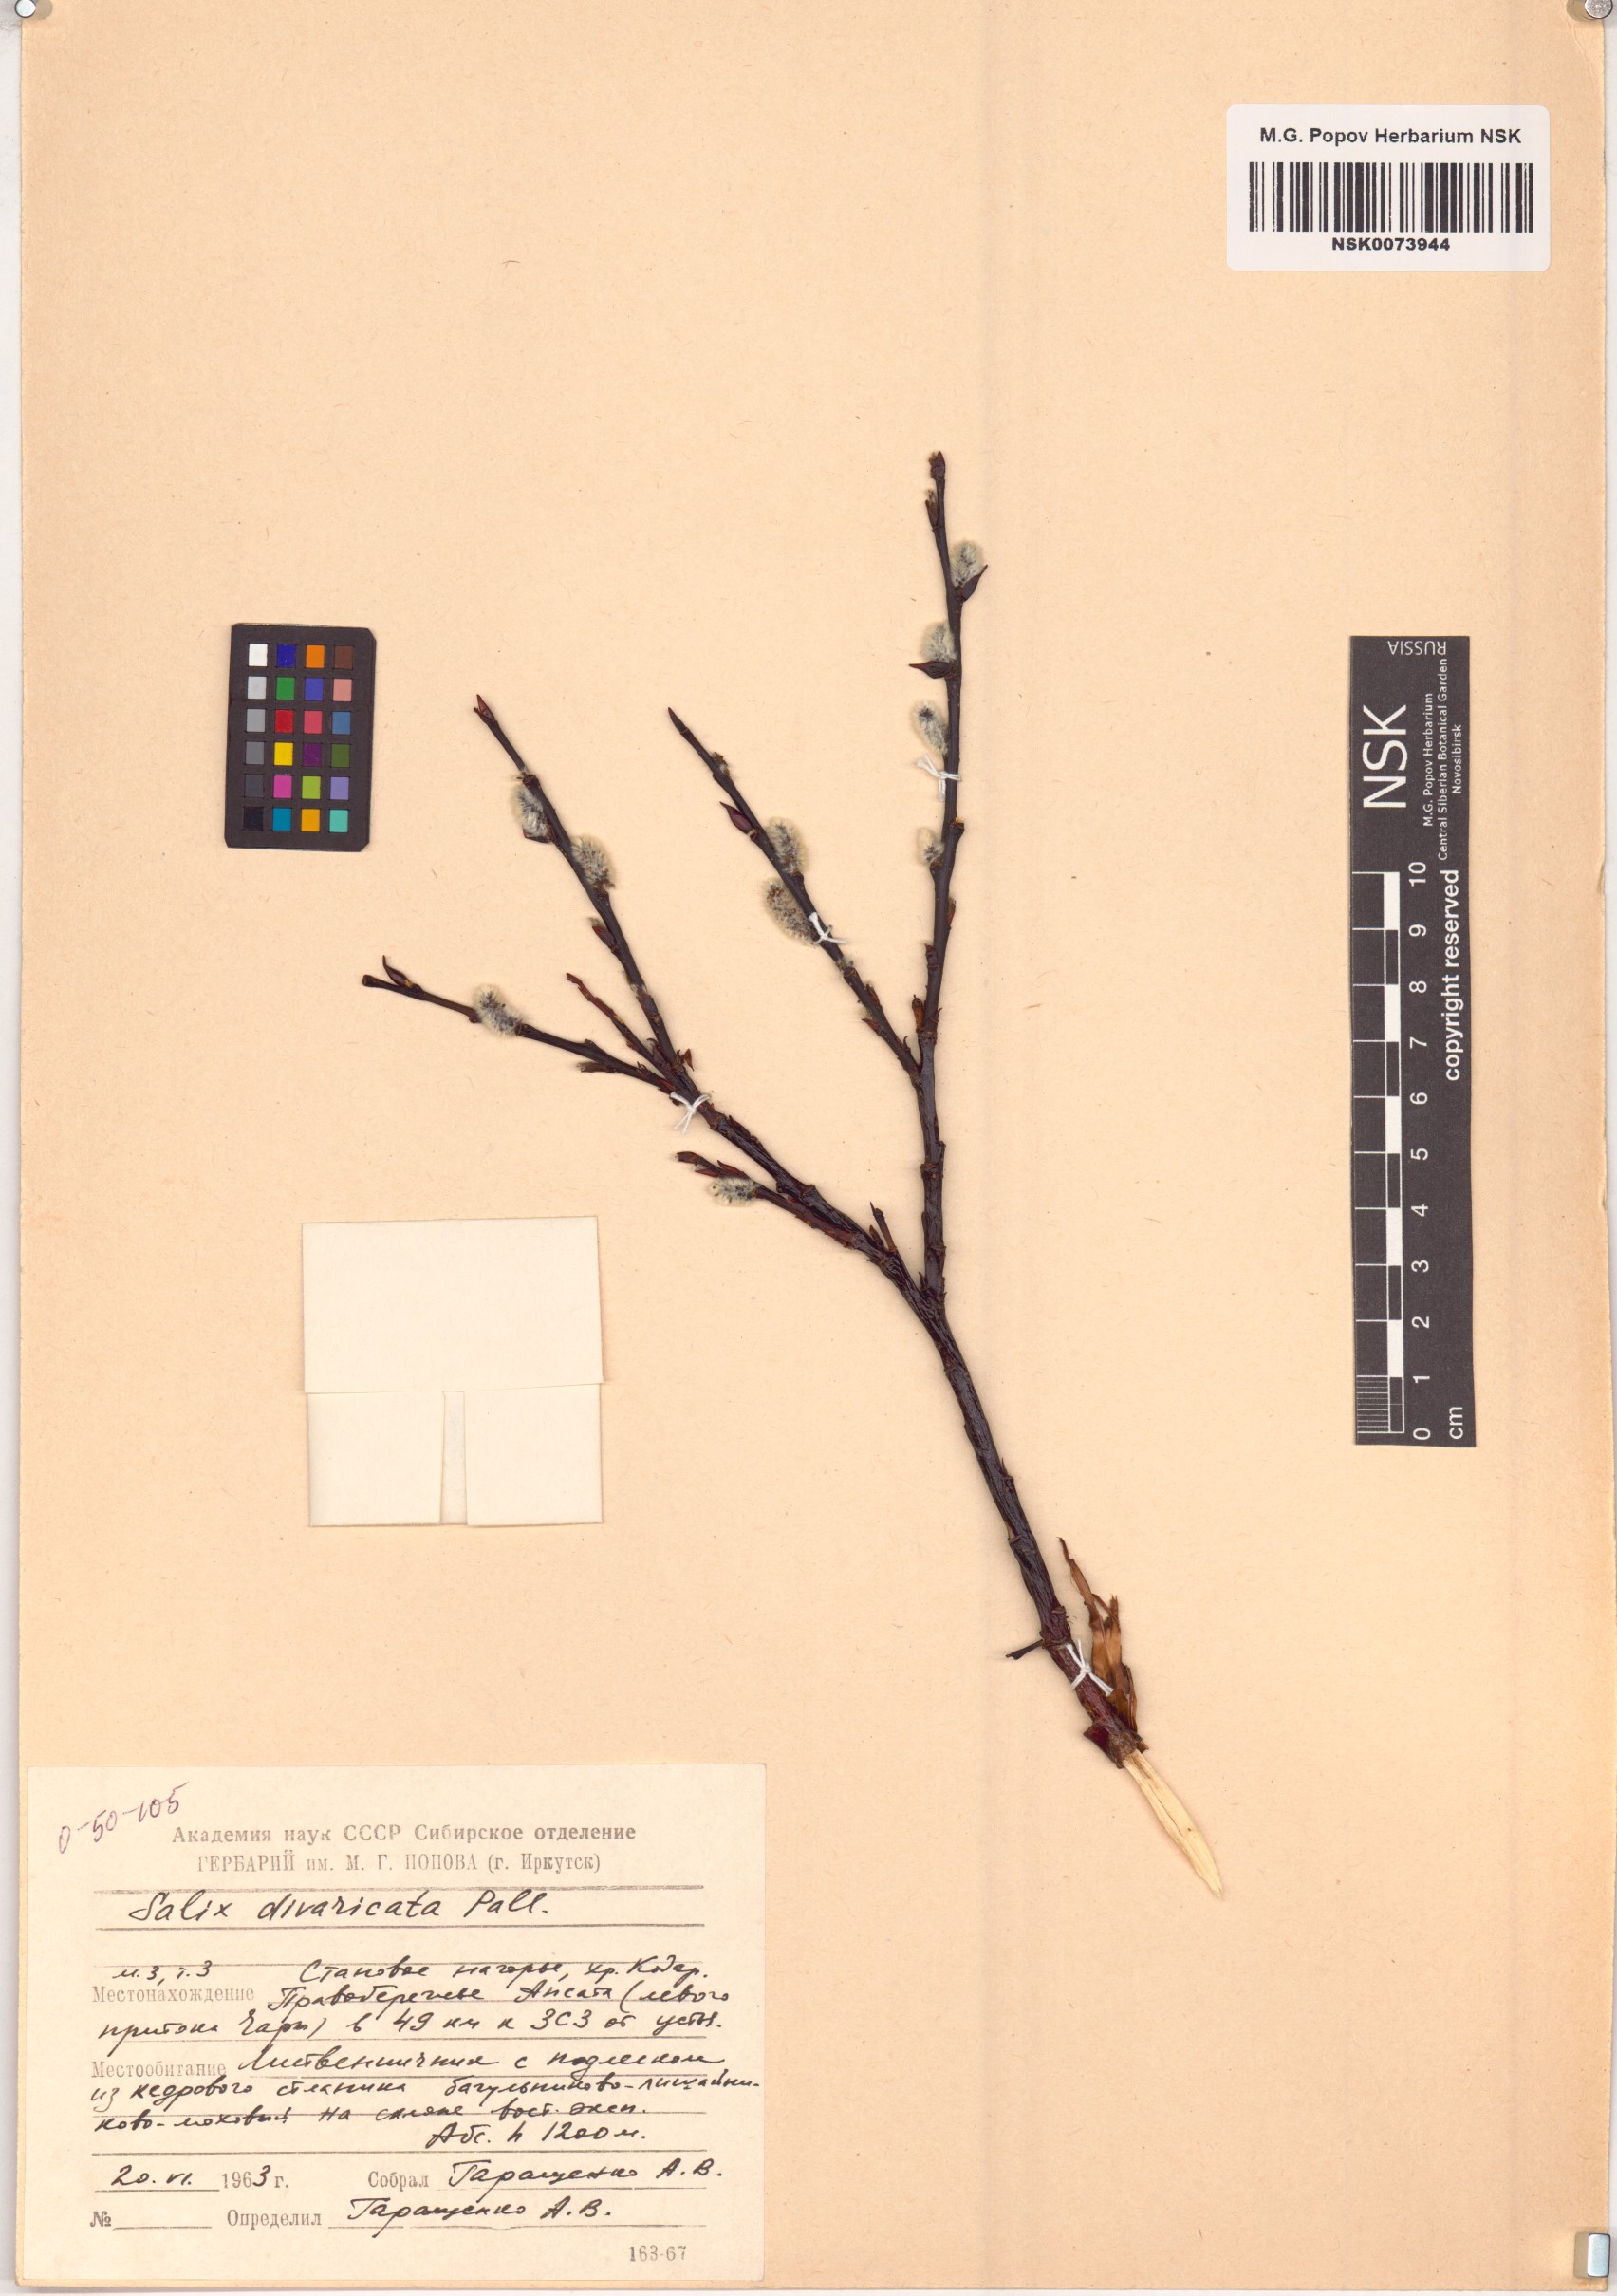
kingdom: Plantae
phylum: Tracheophyta
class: Magnoliopsida
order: Malpighiales
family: Salicaceae
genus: Salix
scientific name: Salix divaricata
